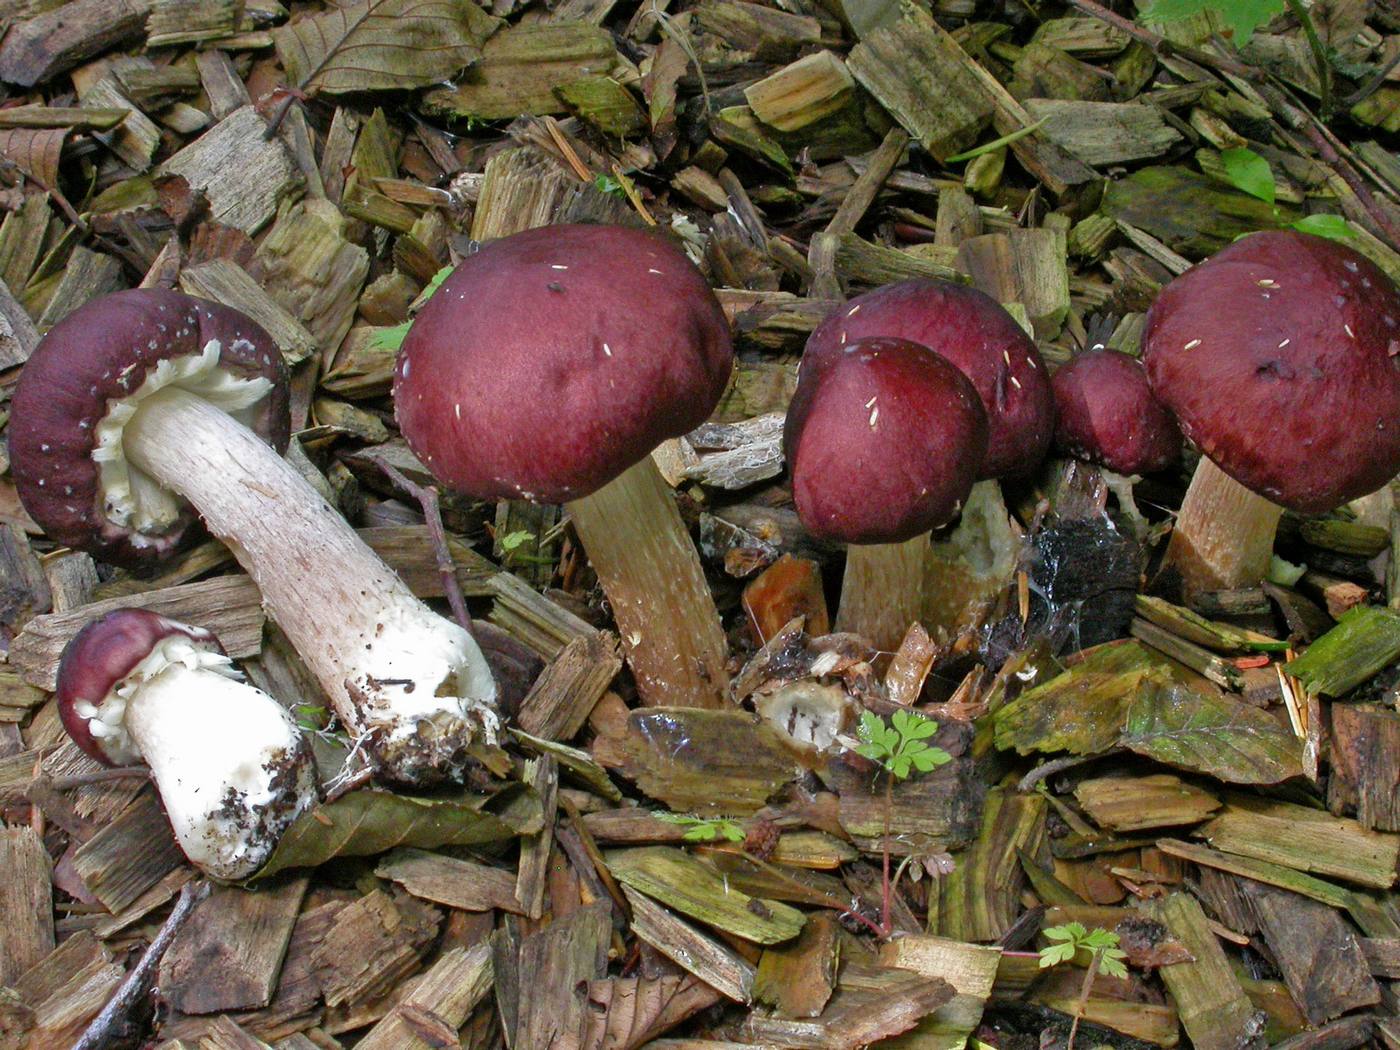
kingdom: Fungi
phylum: Basidiomycota
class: Agaricomycetes
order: Agaricales
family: Strophariaceae
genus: Stropharia
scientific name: Stropharia rugosoannulata
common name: rødbrun bredblad
